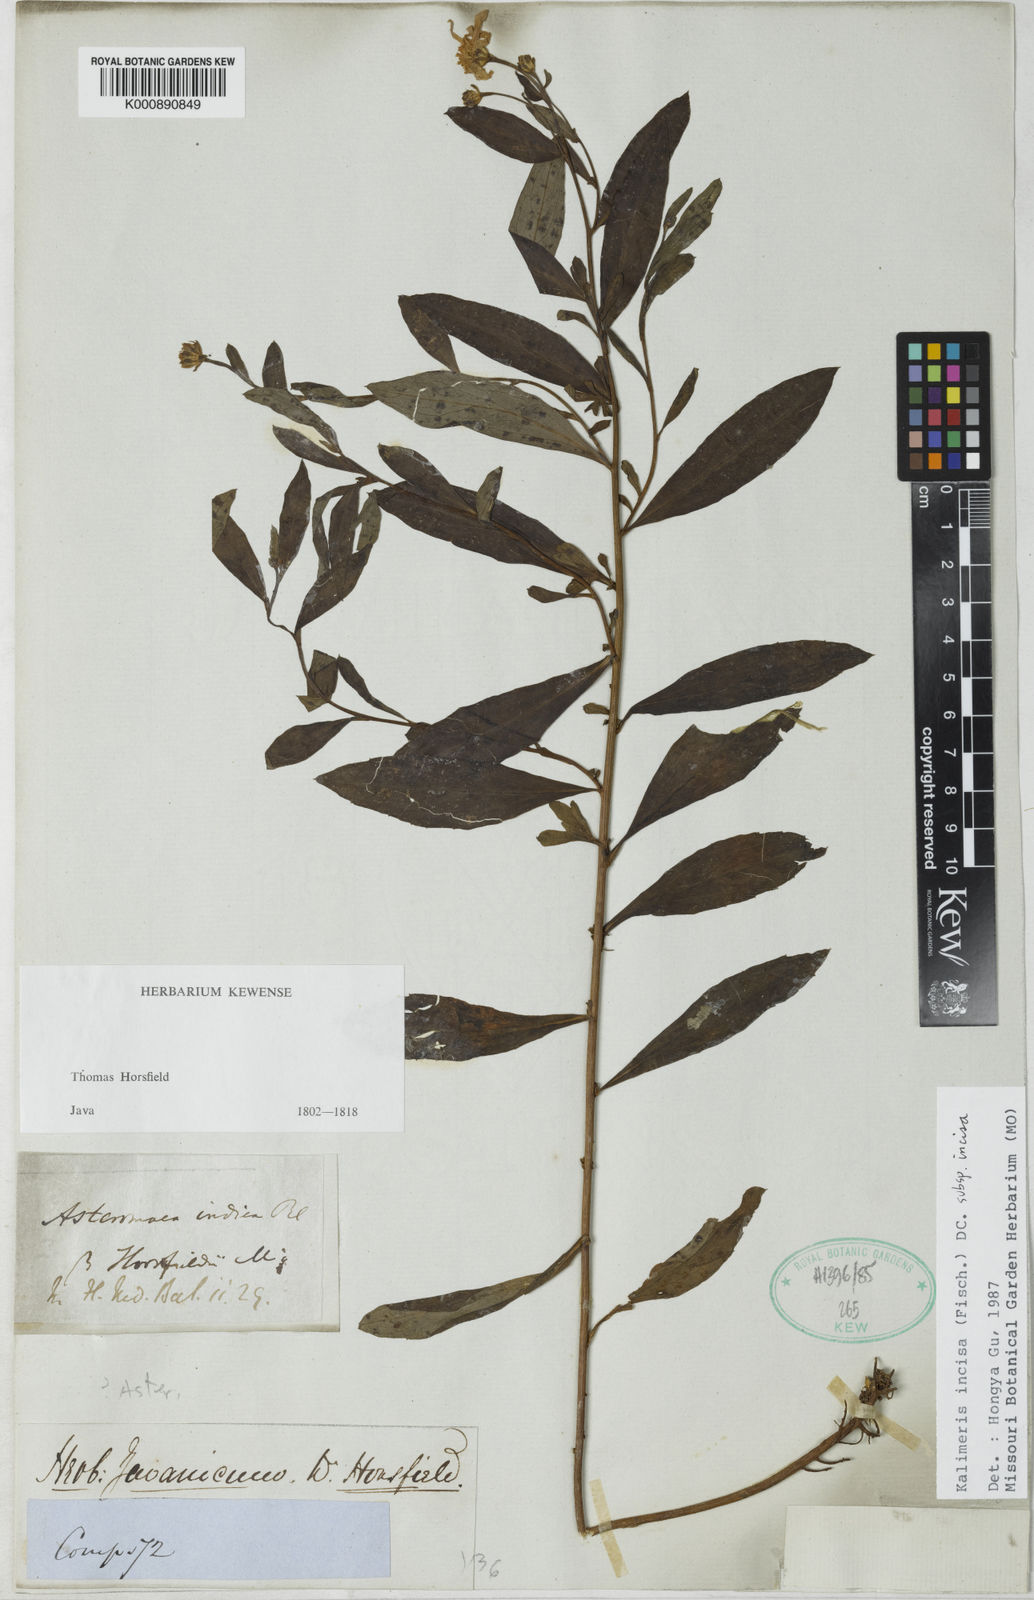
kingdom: Plantae
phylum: Tracheophyta
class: Magnoliopsida
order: Asterales
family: Asteraceae
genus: Kalimeris
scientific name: Kalimeris incisa
